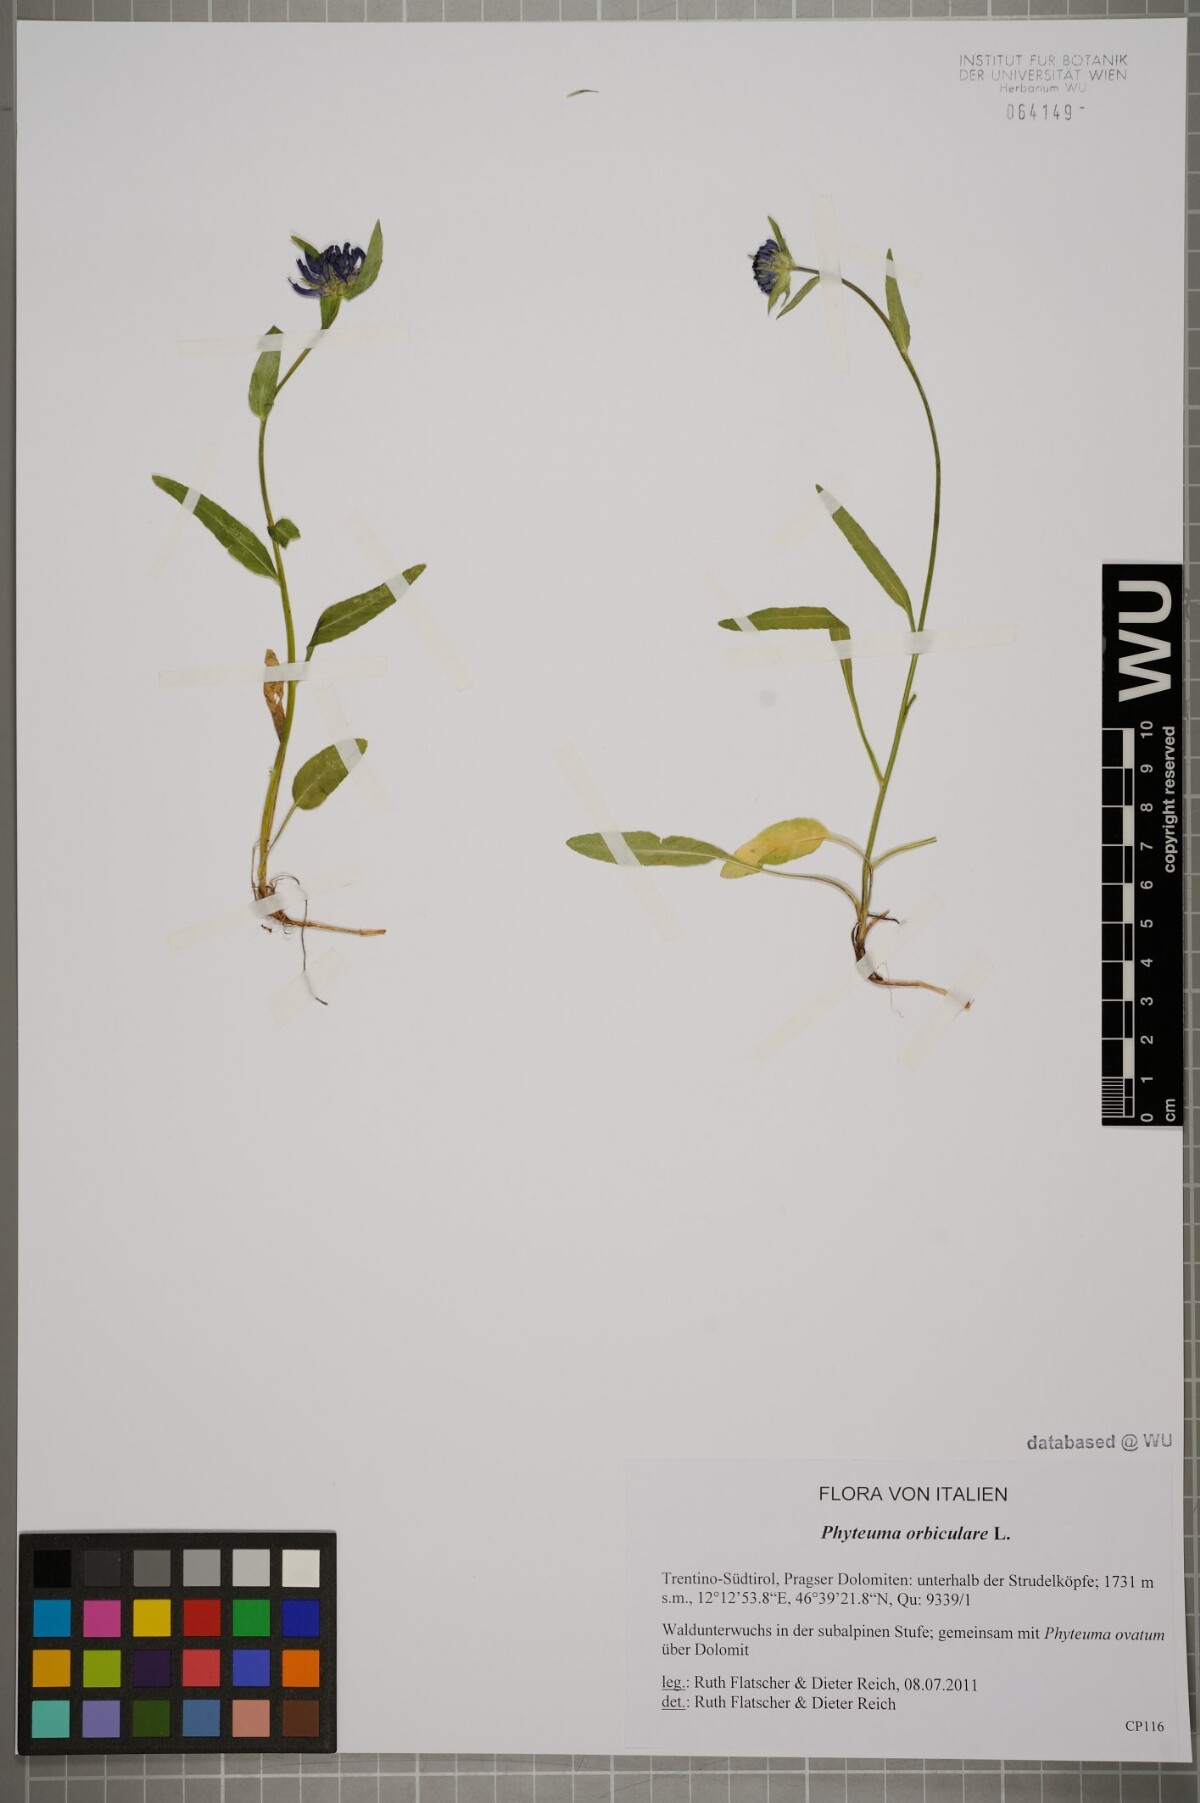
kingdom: Plantae
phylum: Tracheophyta
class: Magnoliopsida
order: Asterales
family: Campanulaceae
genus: Phyteuma
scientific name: Phyteuma orbiculare
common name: Round-headed rampion
